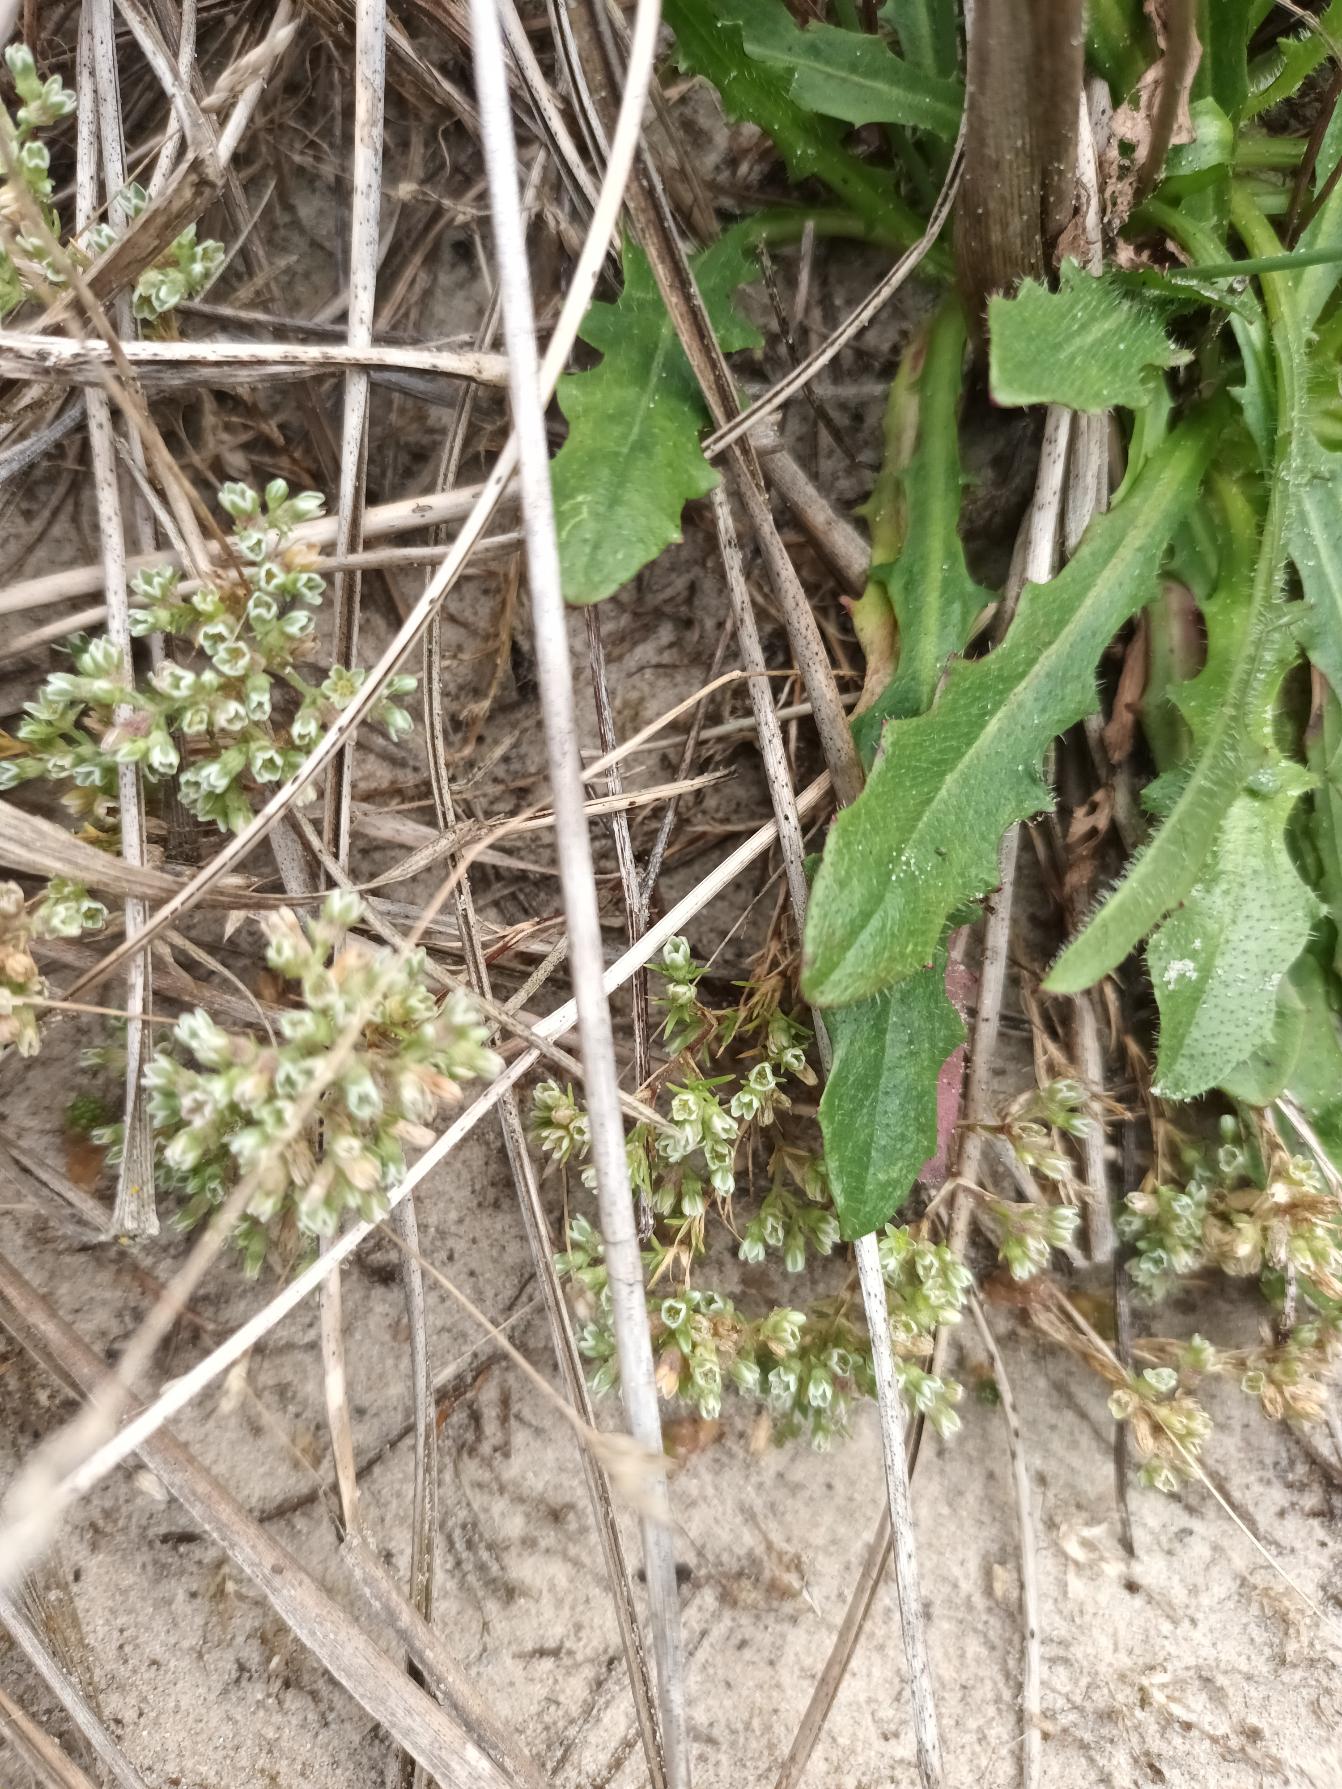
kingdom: Plantae
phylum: Tracheophyta
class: Magnoliopsida
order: Caryophyllales
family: Caryophyllaceae
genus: Scleranthus
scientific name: Scleranthus perennis
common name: Flerårig knavel
